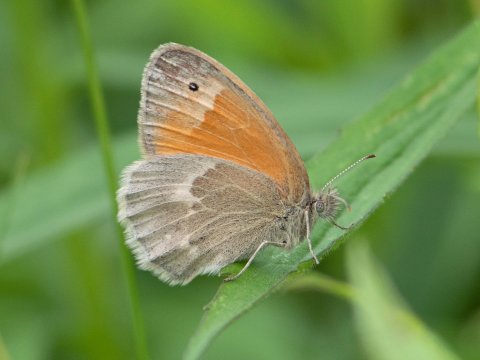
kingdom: Animalia
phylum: Arthropoda
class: Insecta
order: Lepidoptera
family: Nymphalidae
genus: Coenonympha
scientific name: Coenonympha california
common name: California Ringlet
